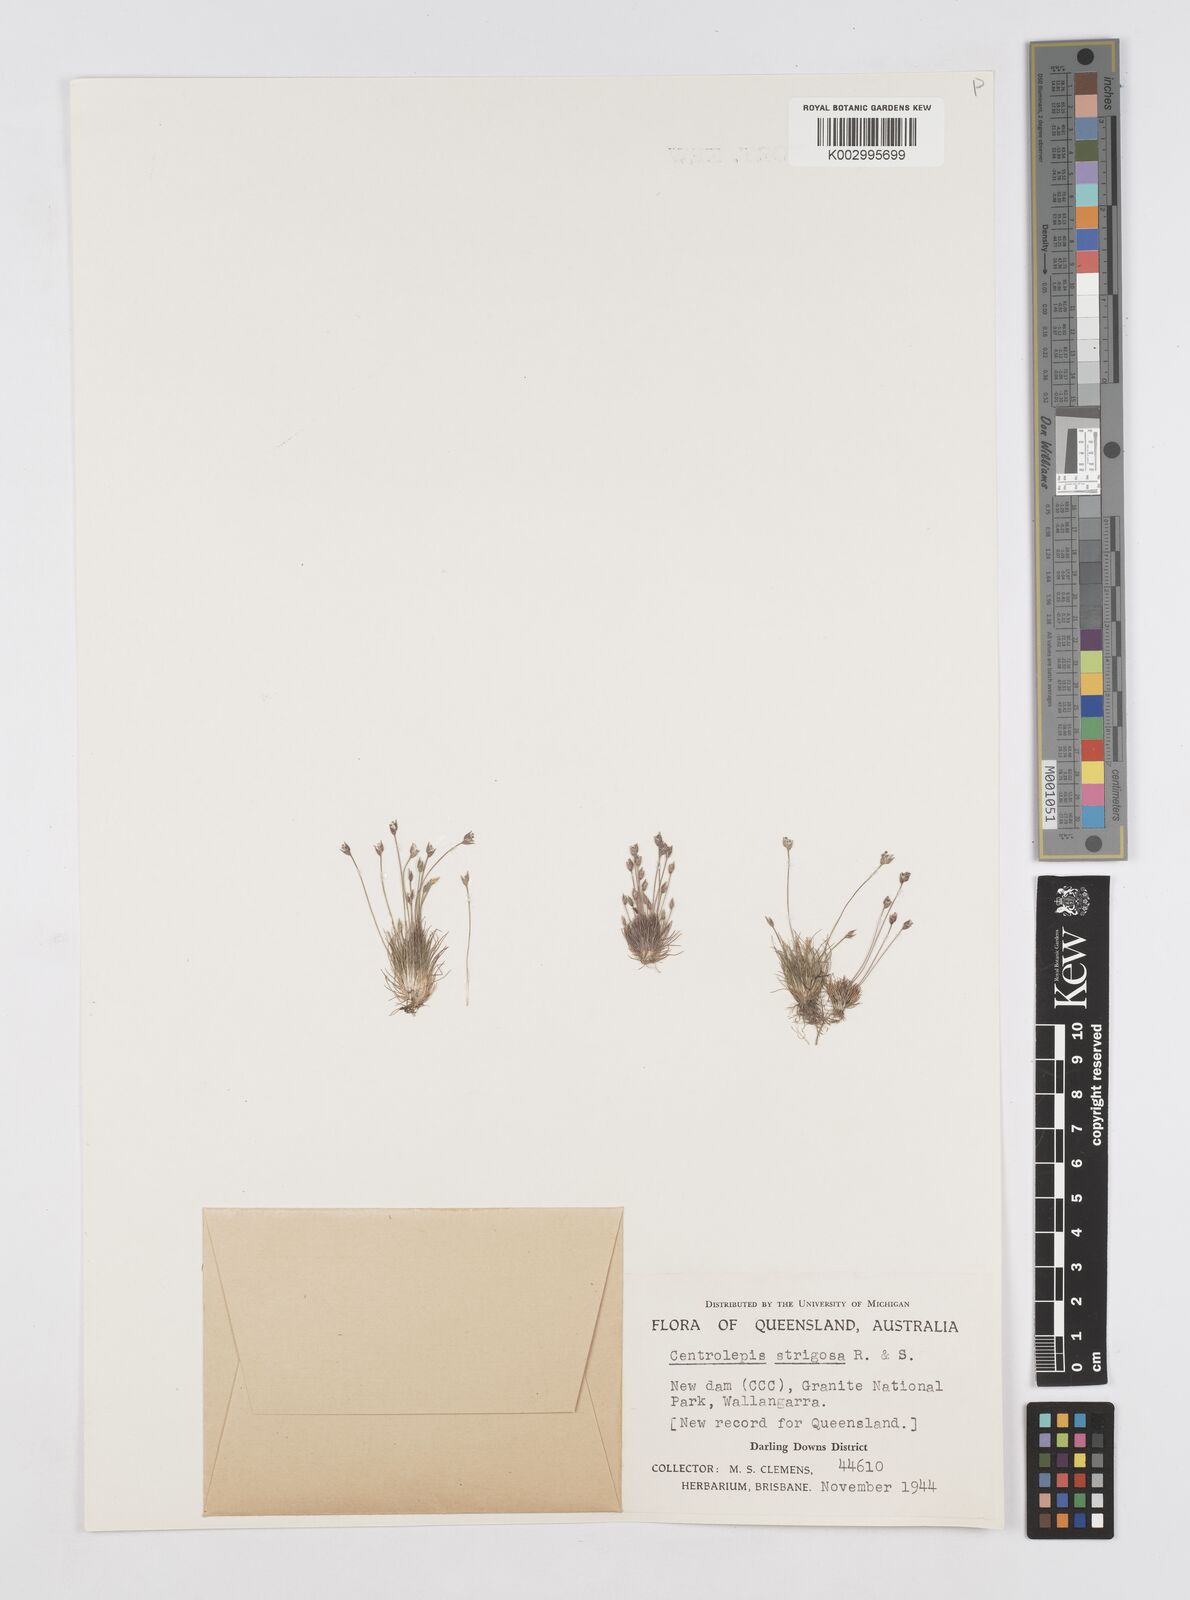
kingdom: Plantae
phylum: Tracheophyta
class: Liliopsida
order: Poales
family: Restionaceae
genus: Centrolepis
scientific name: Centrolepis strigosa
